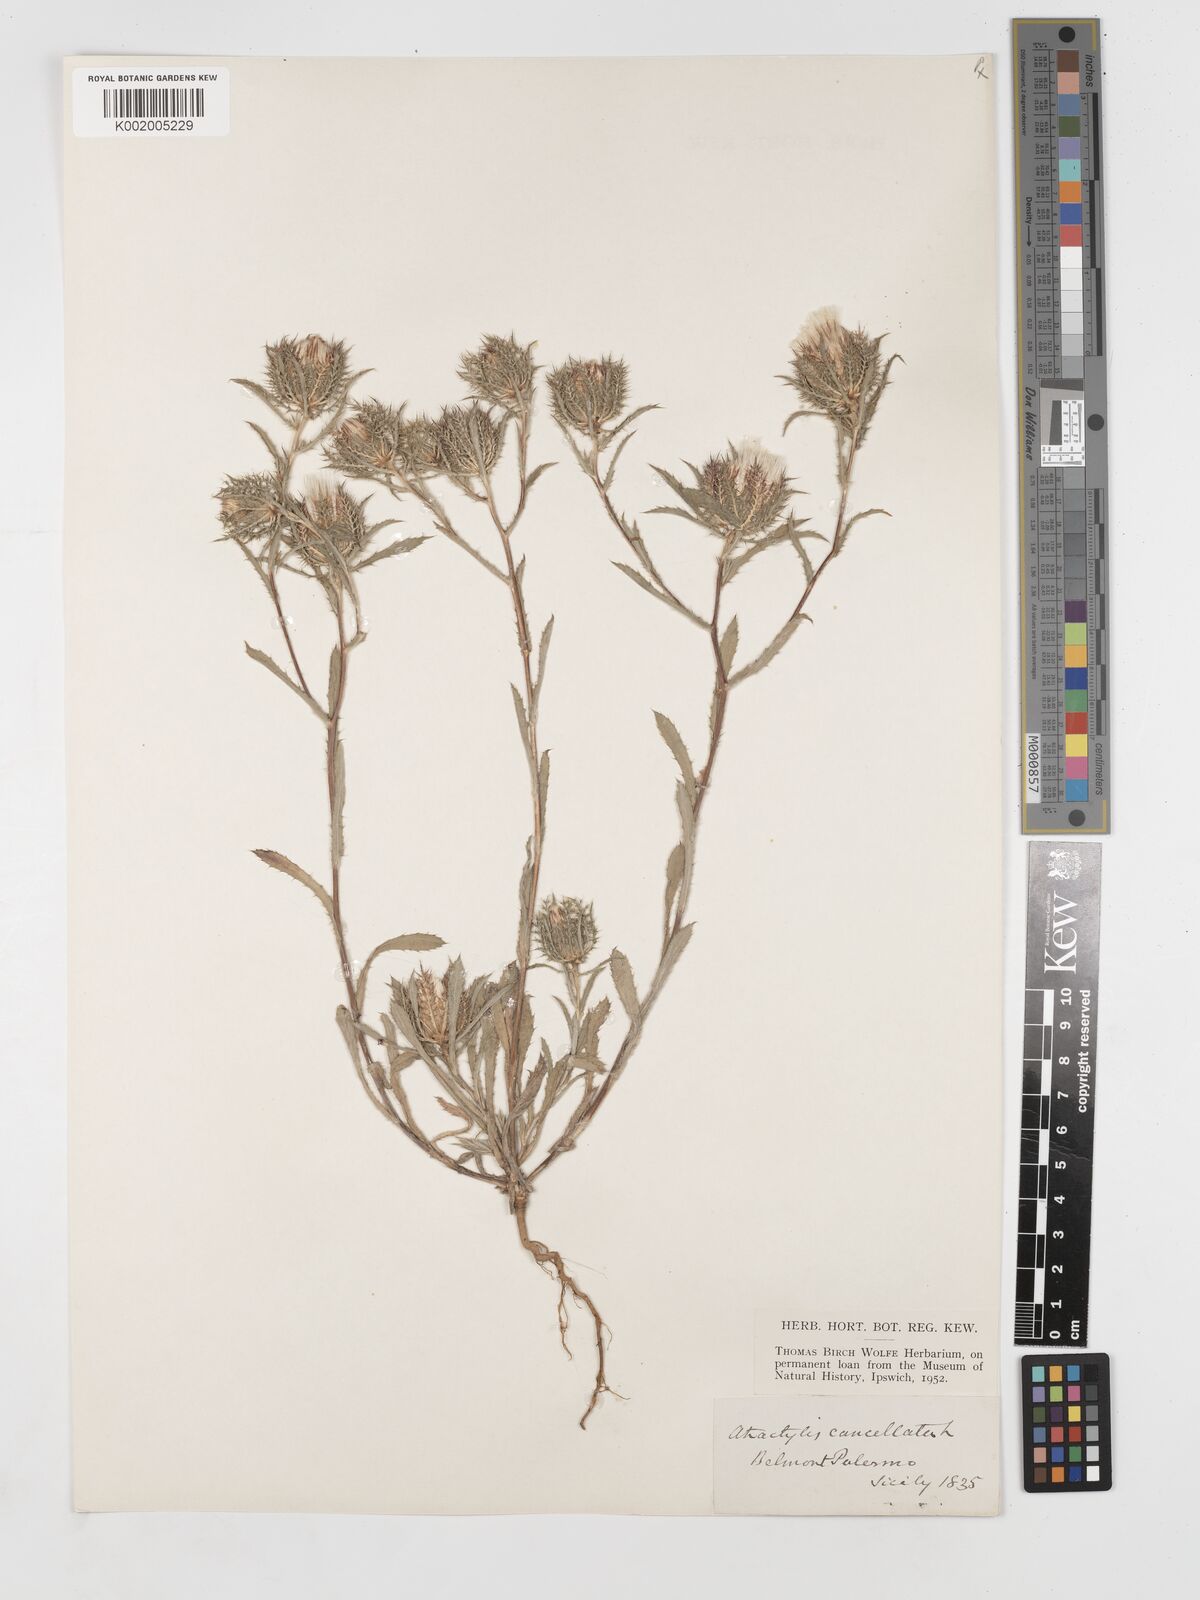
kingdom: Plantae
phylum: Tracheophyta
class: Magnoliopsida
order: Asterales
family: Asteraceae
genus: Atractylis
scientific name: Atractylis cancellata
